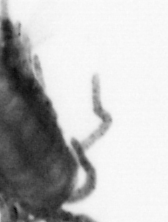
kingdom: Animalia
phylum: Arthropoda
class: Copepoda
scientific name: Copepoda
